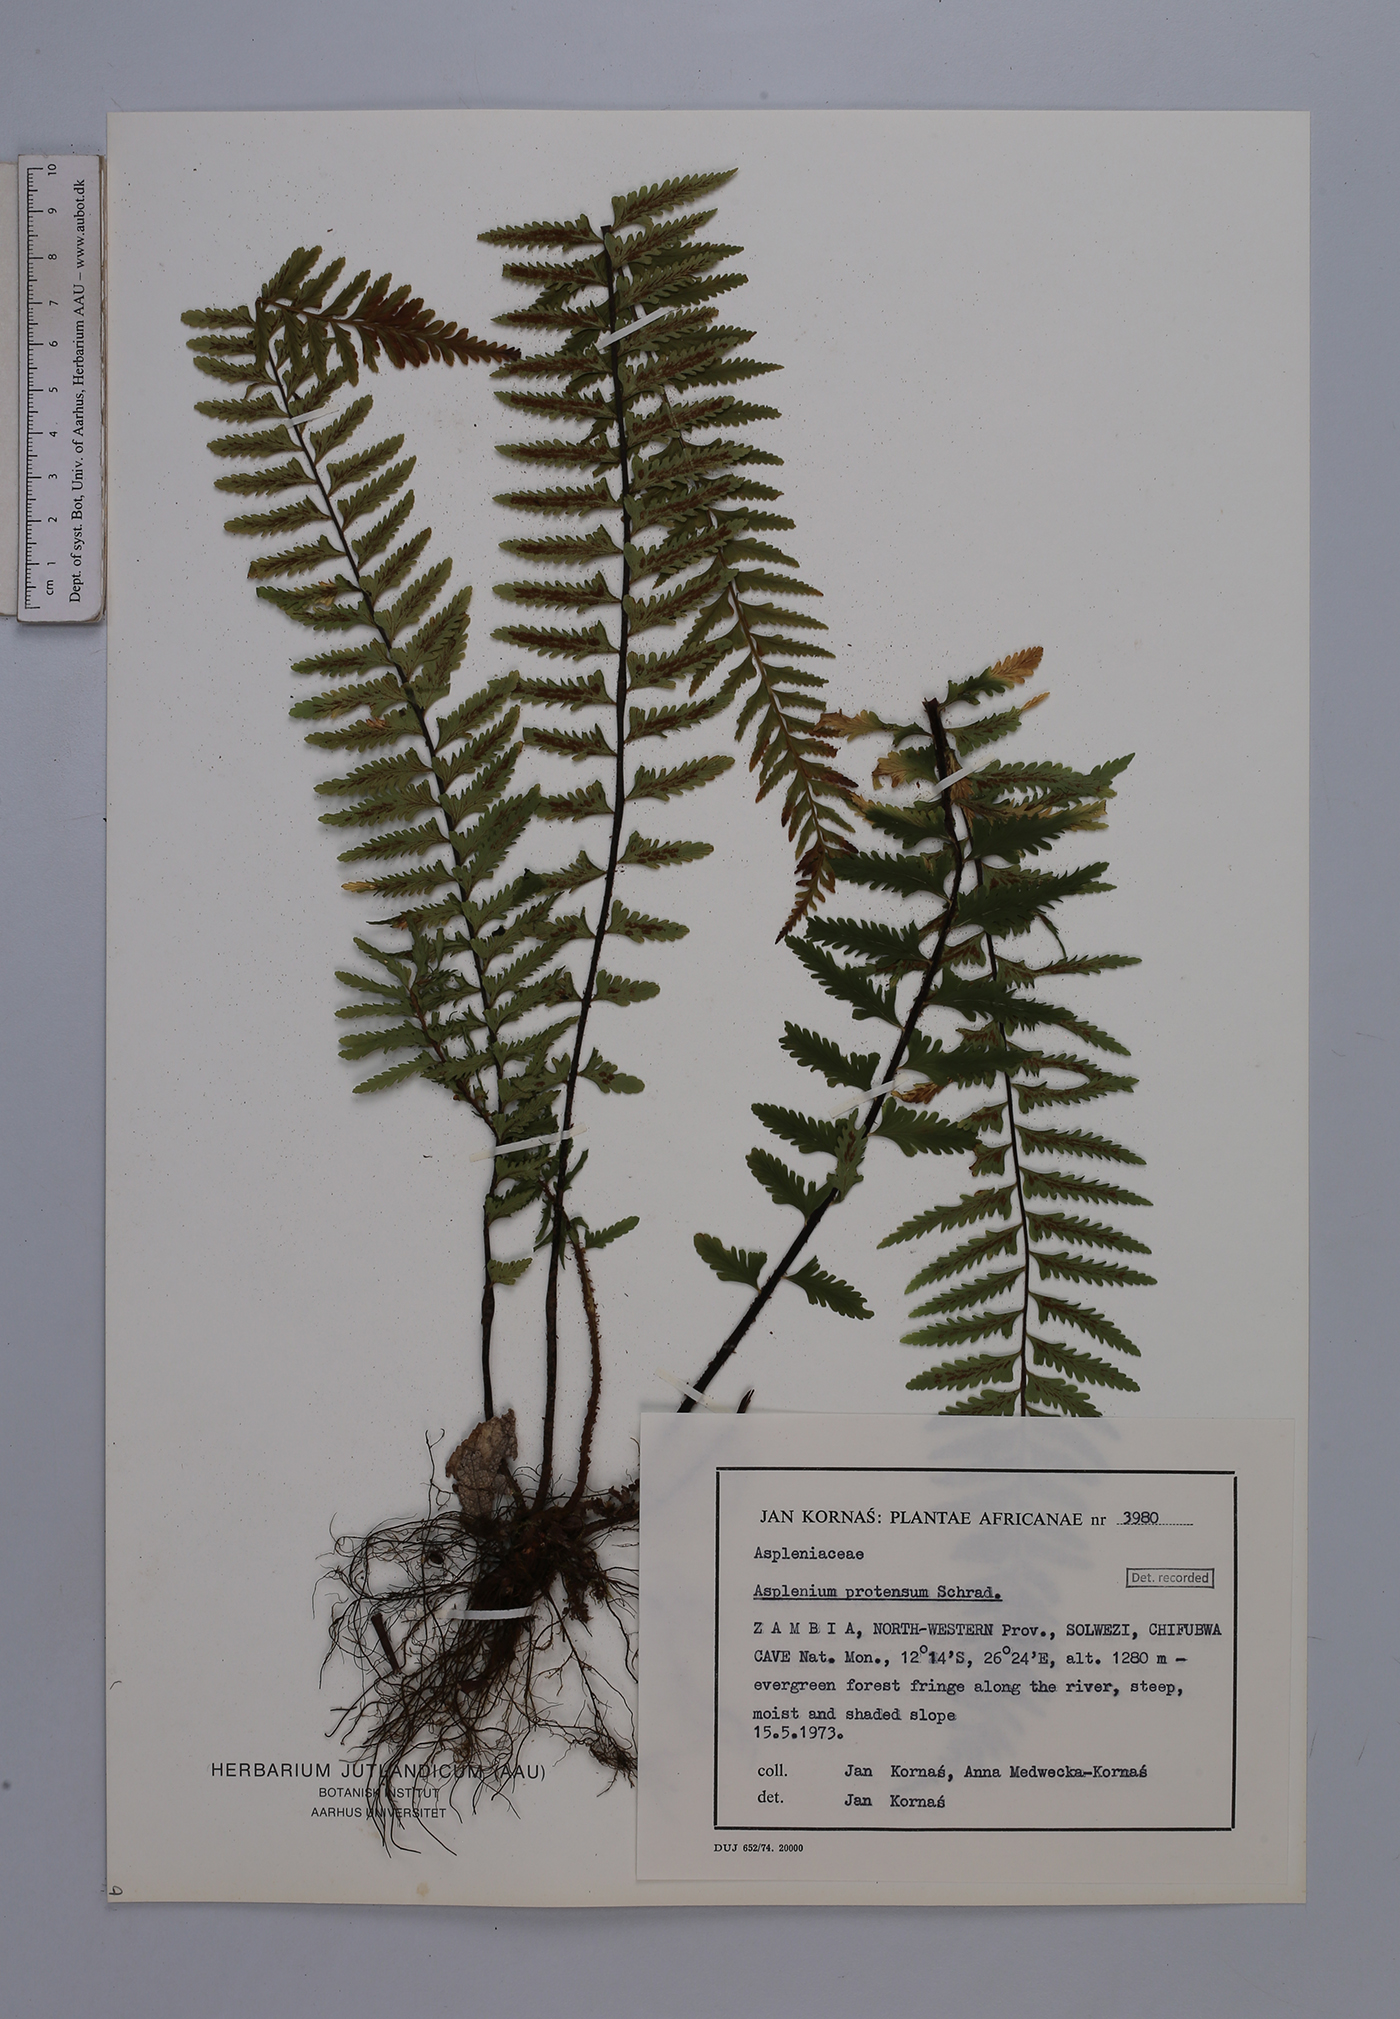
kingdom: Plantae
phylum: Tracheophyta
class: Polypodiopsida
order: Polypodiales
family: Aspleniaceae
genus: Asplenium
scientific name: Asplenium kaulfussii
